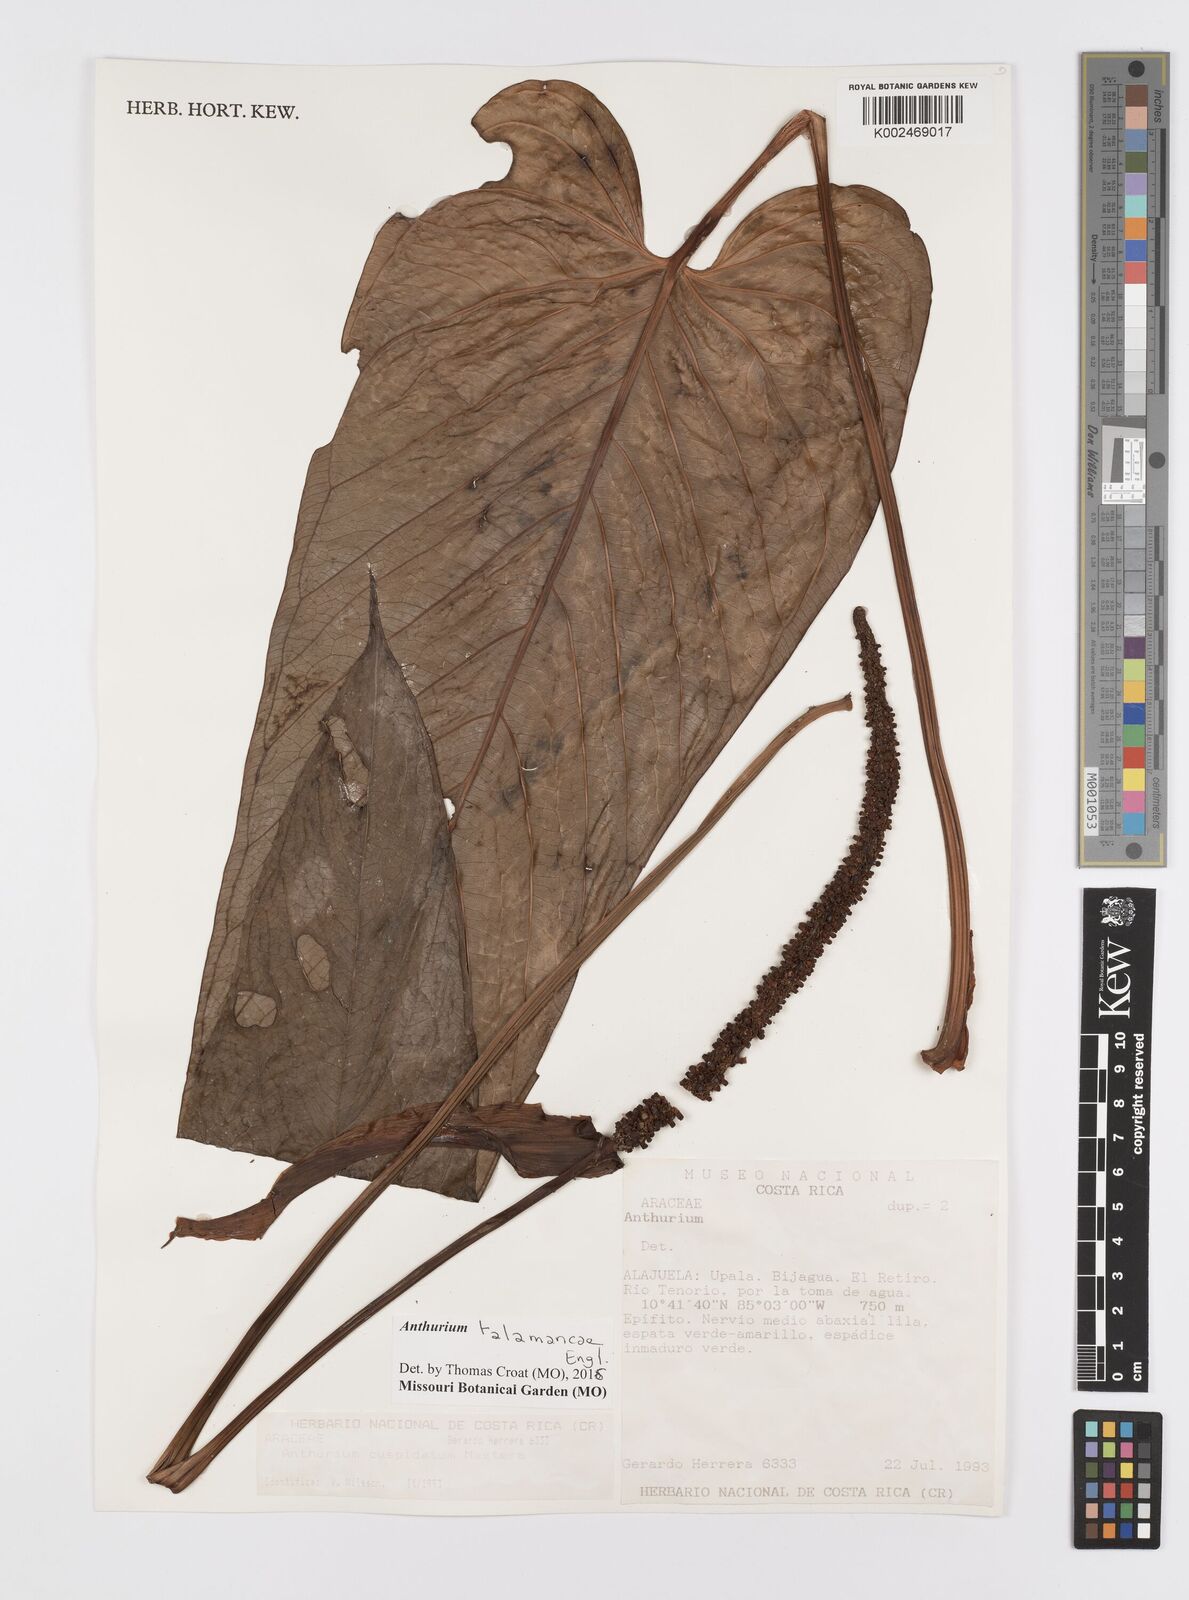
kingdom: Plantae
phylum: Tracheophyta
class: Liliopsida
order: Alismatales
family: Araceae
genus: Anthurium
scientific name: Anthurium talamancae
